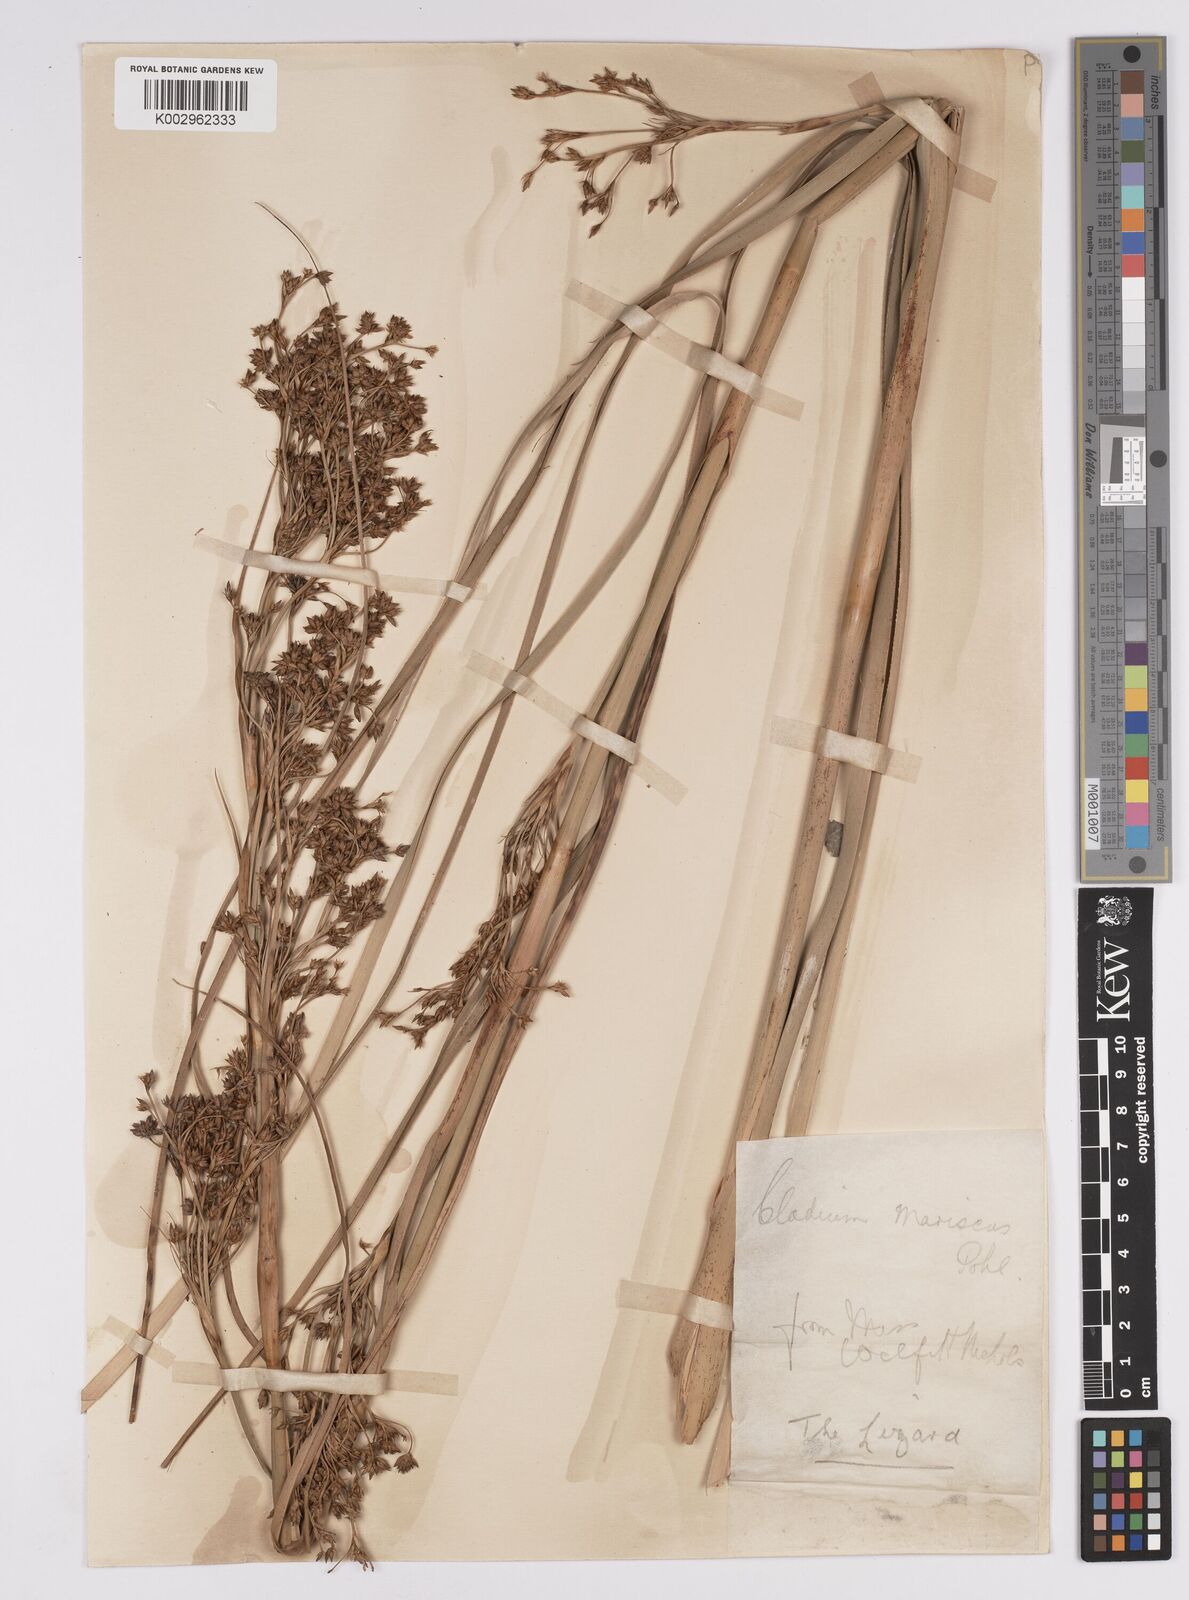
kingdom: Plantae
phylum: Tracheophyta
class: Liliopsida
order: Poales
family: Cyperaceae
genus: Cladium
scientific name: Cladium mariscus
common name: Great fen-sedge
